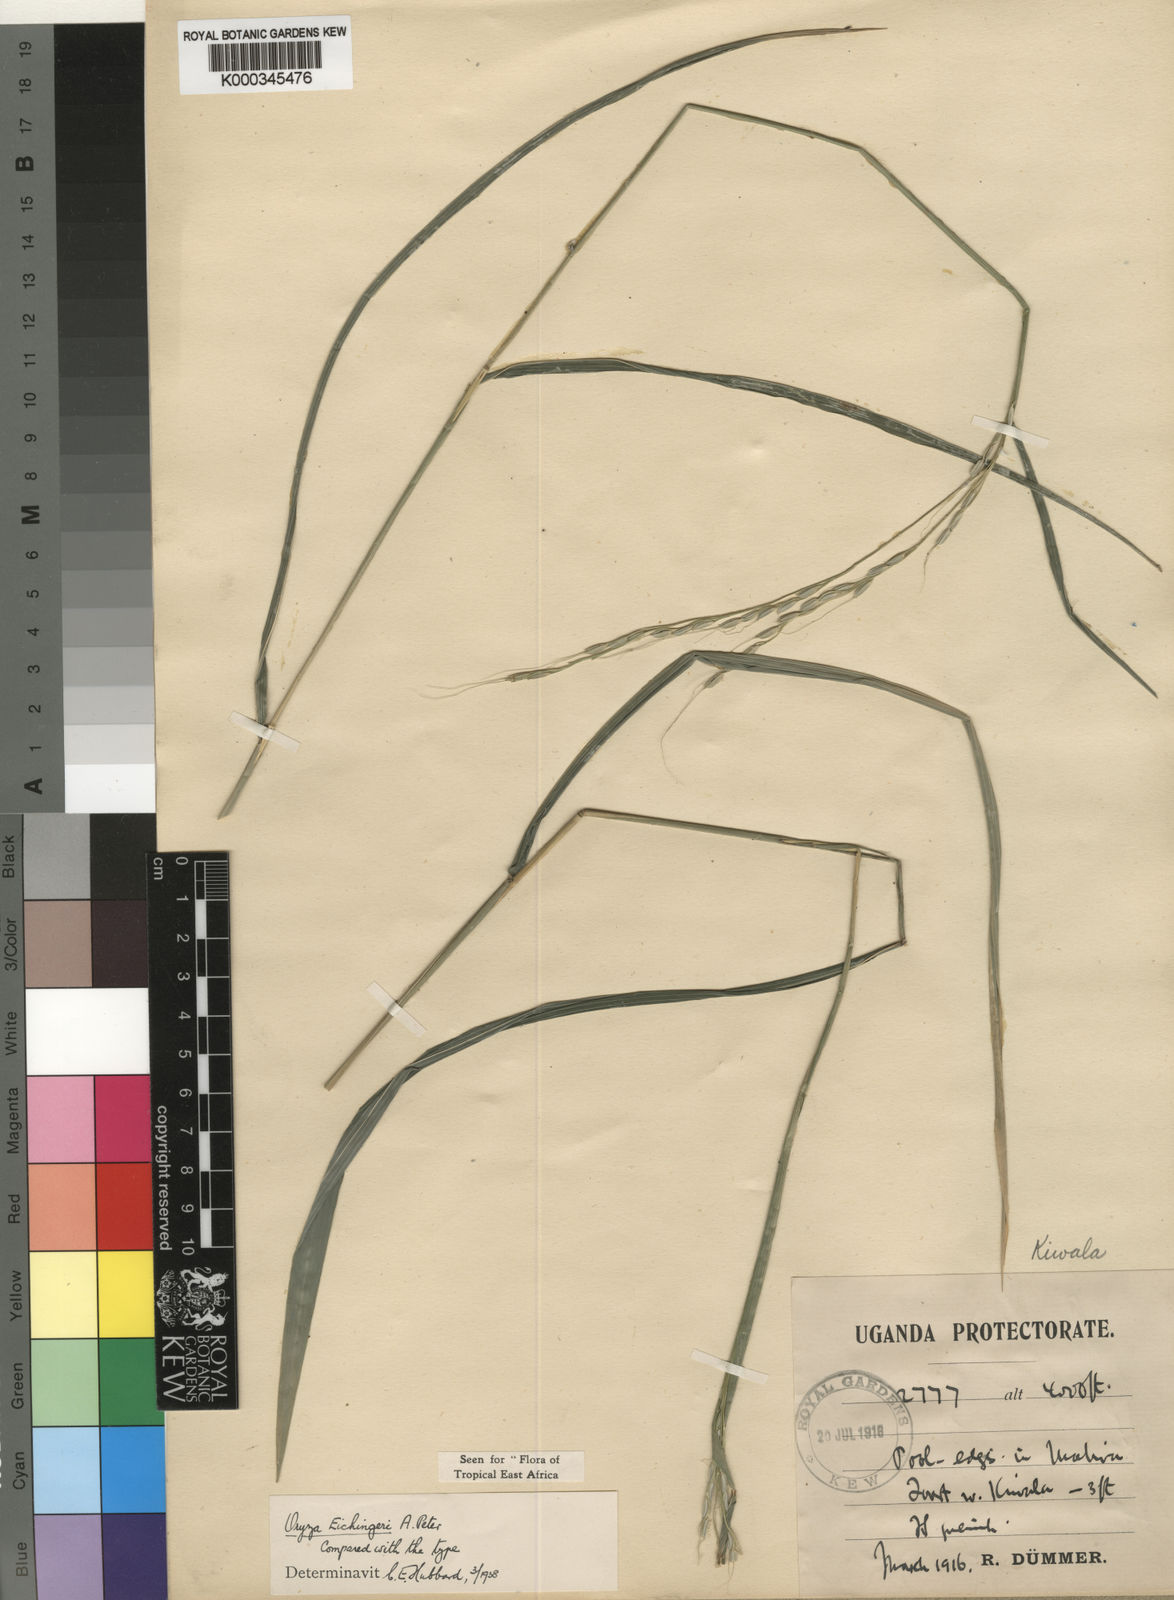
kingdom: Plantae
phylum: Tracheophyta
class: Liliopsida
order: Poales
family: Poaceae
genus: Oryza
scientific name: Oryza eichingeri
